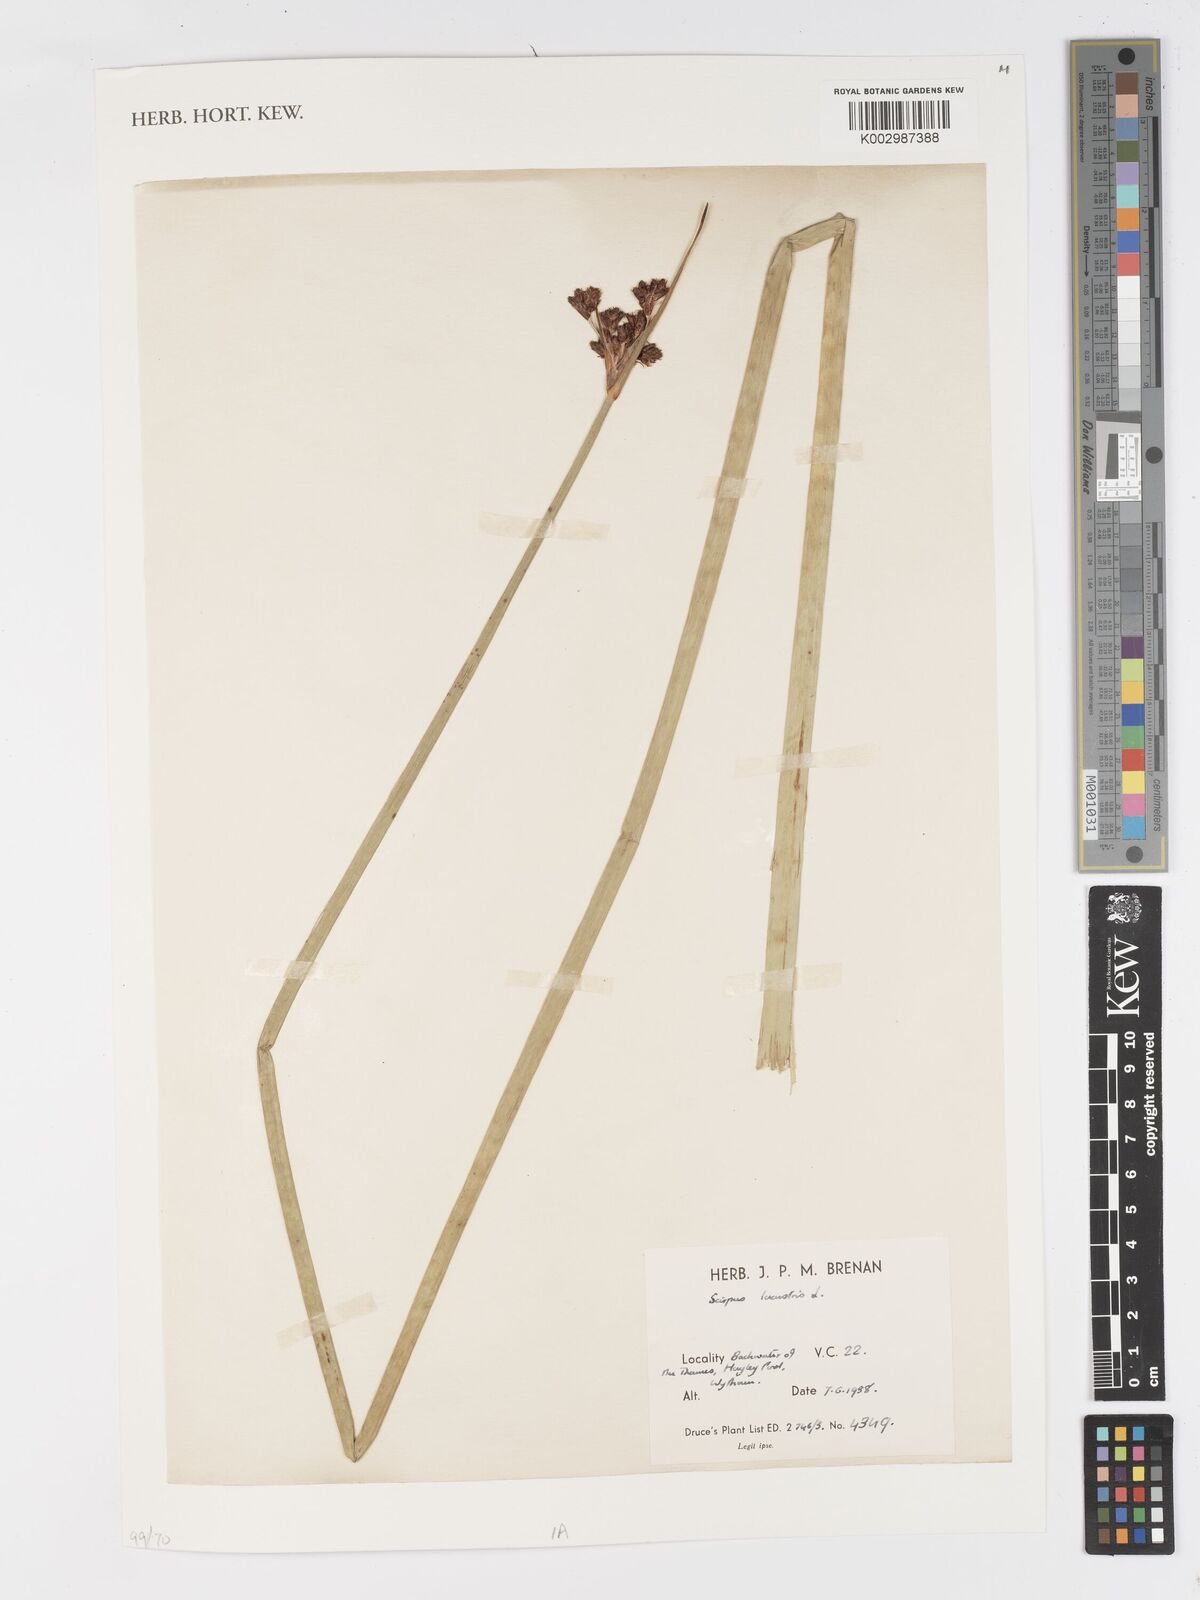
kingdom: Plantae
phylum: Tracheophyta
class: Liliopsida
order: Poales
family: Cyperaceae
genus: Schoenoplectus
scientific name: Schoenoplectus lacustris
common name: Common club-rush
